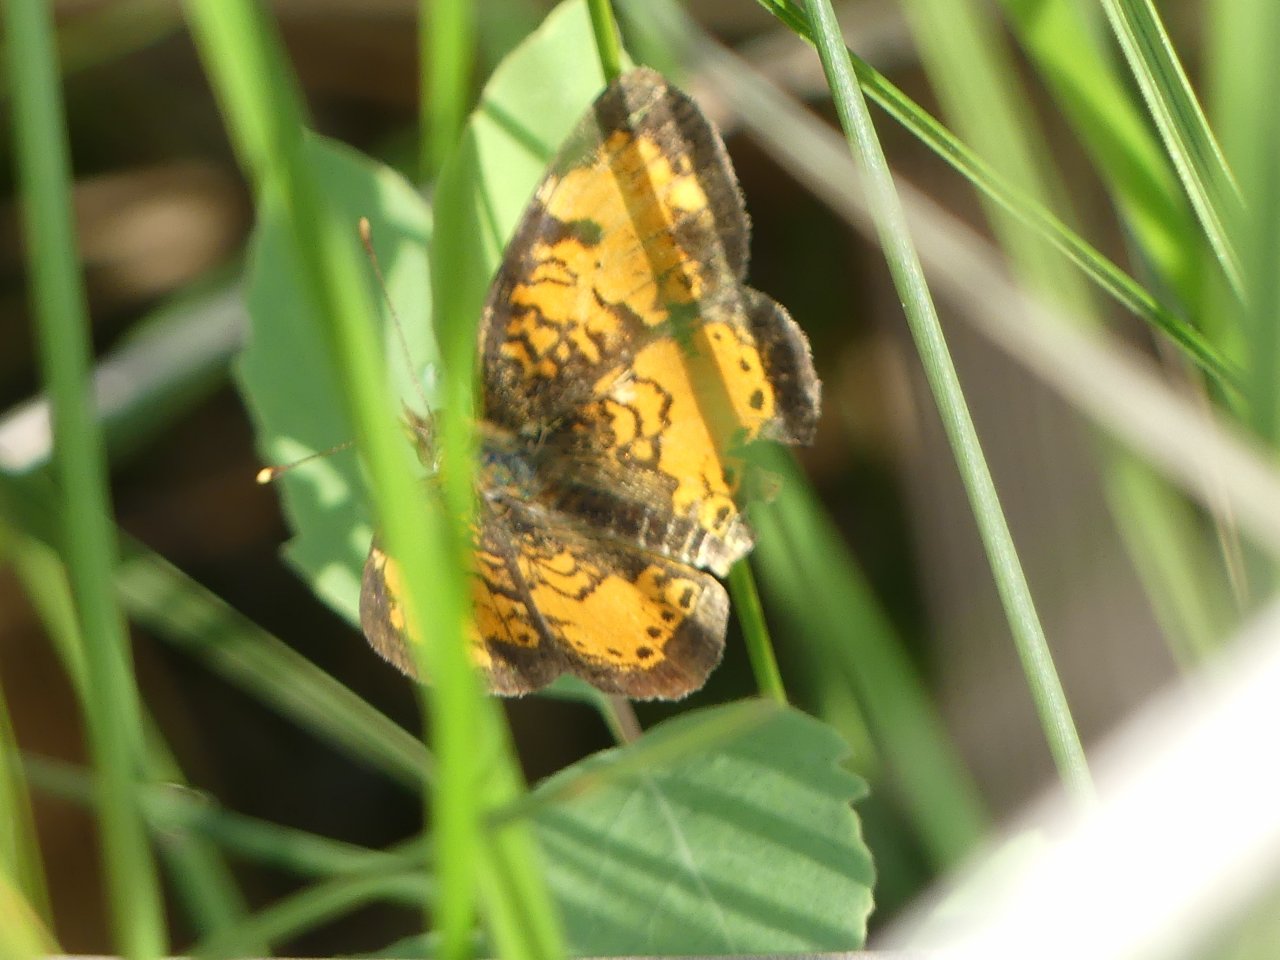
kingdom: Animalia
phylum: Arthropoda
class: Insecta
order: Lepidoptera
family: Nymphalidae
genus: Phyciodes
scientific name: Phyciodes tharos
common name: Northern Crescent
